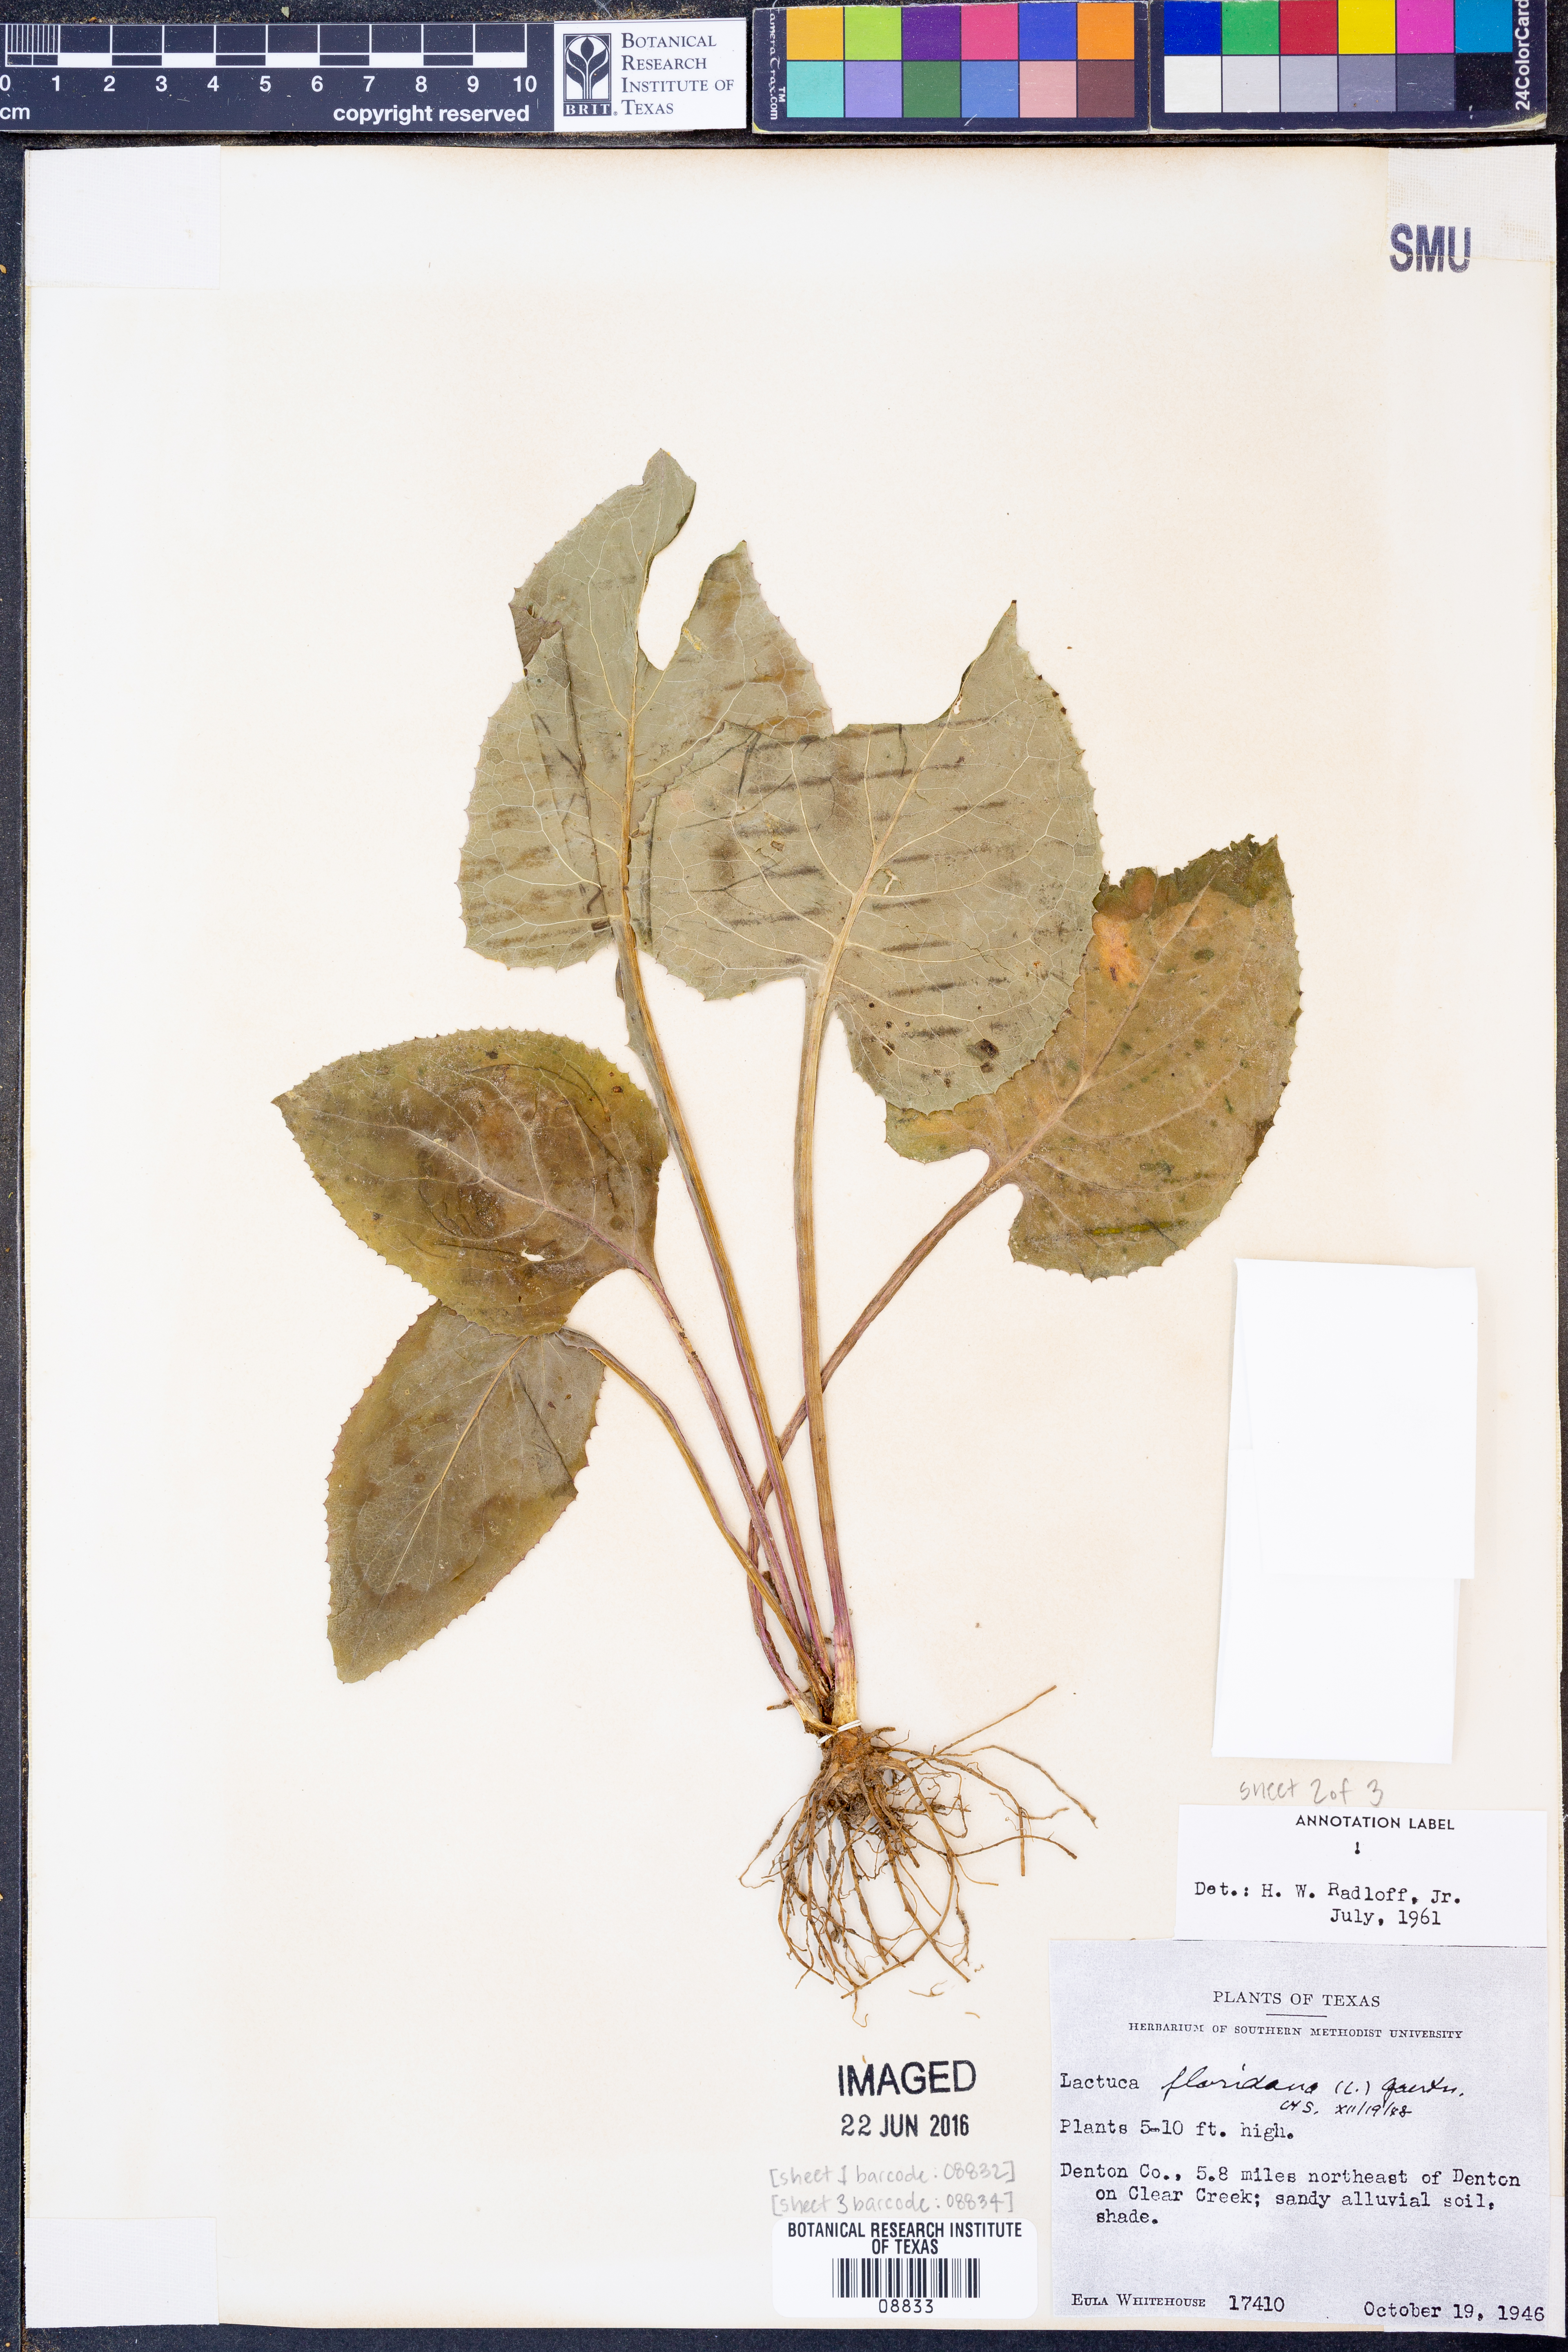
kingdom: Plantae
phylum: Tracheophyta
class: Magnoliopsida
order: Asterales
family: Asteraceae
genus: Lactuca
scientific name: Lactuca floridana
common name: Woodland lettuce
